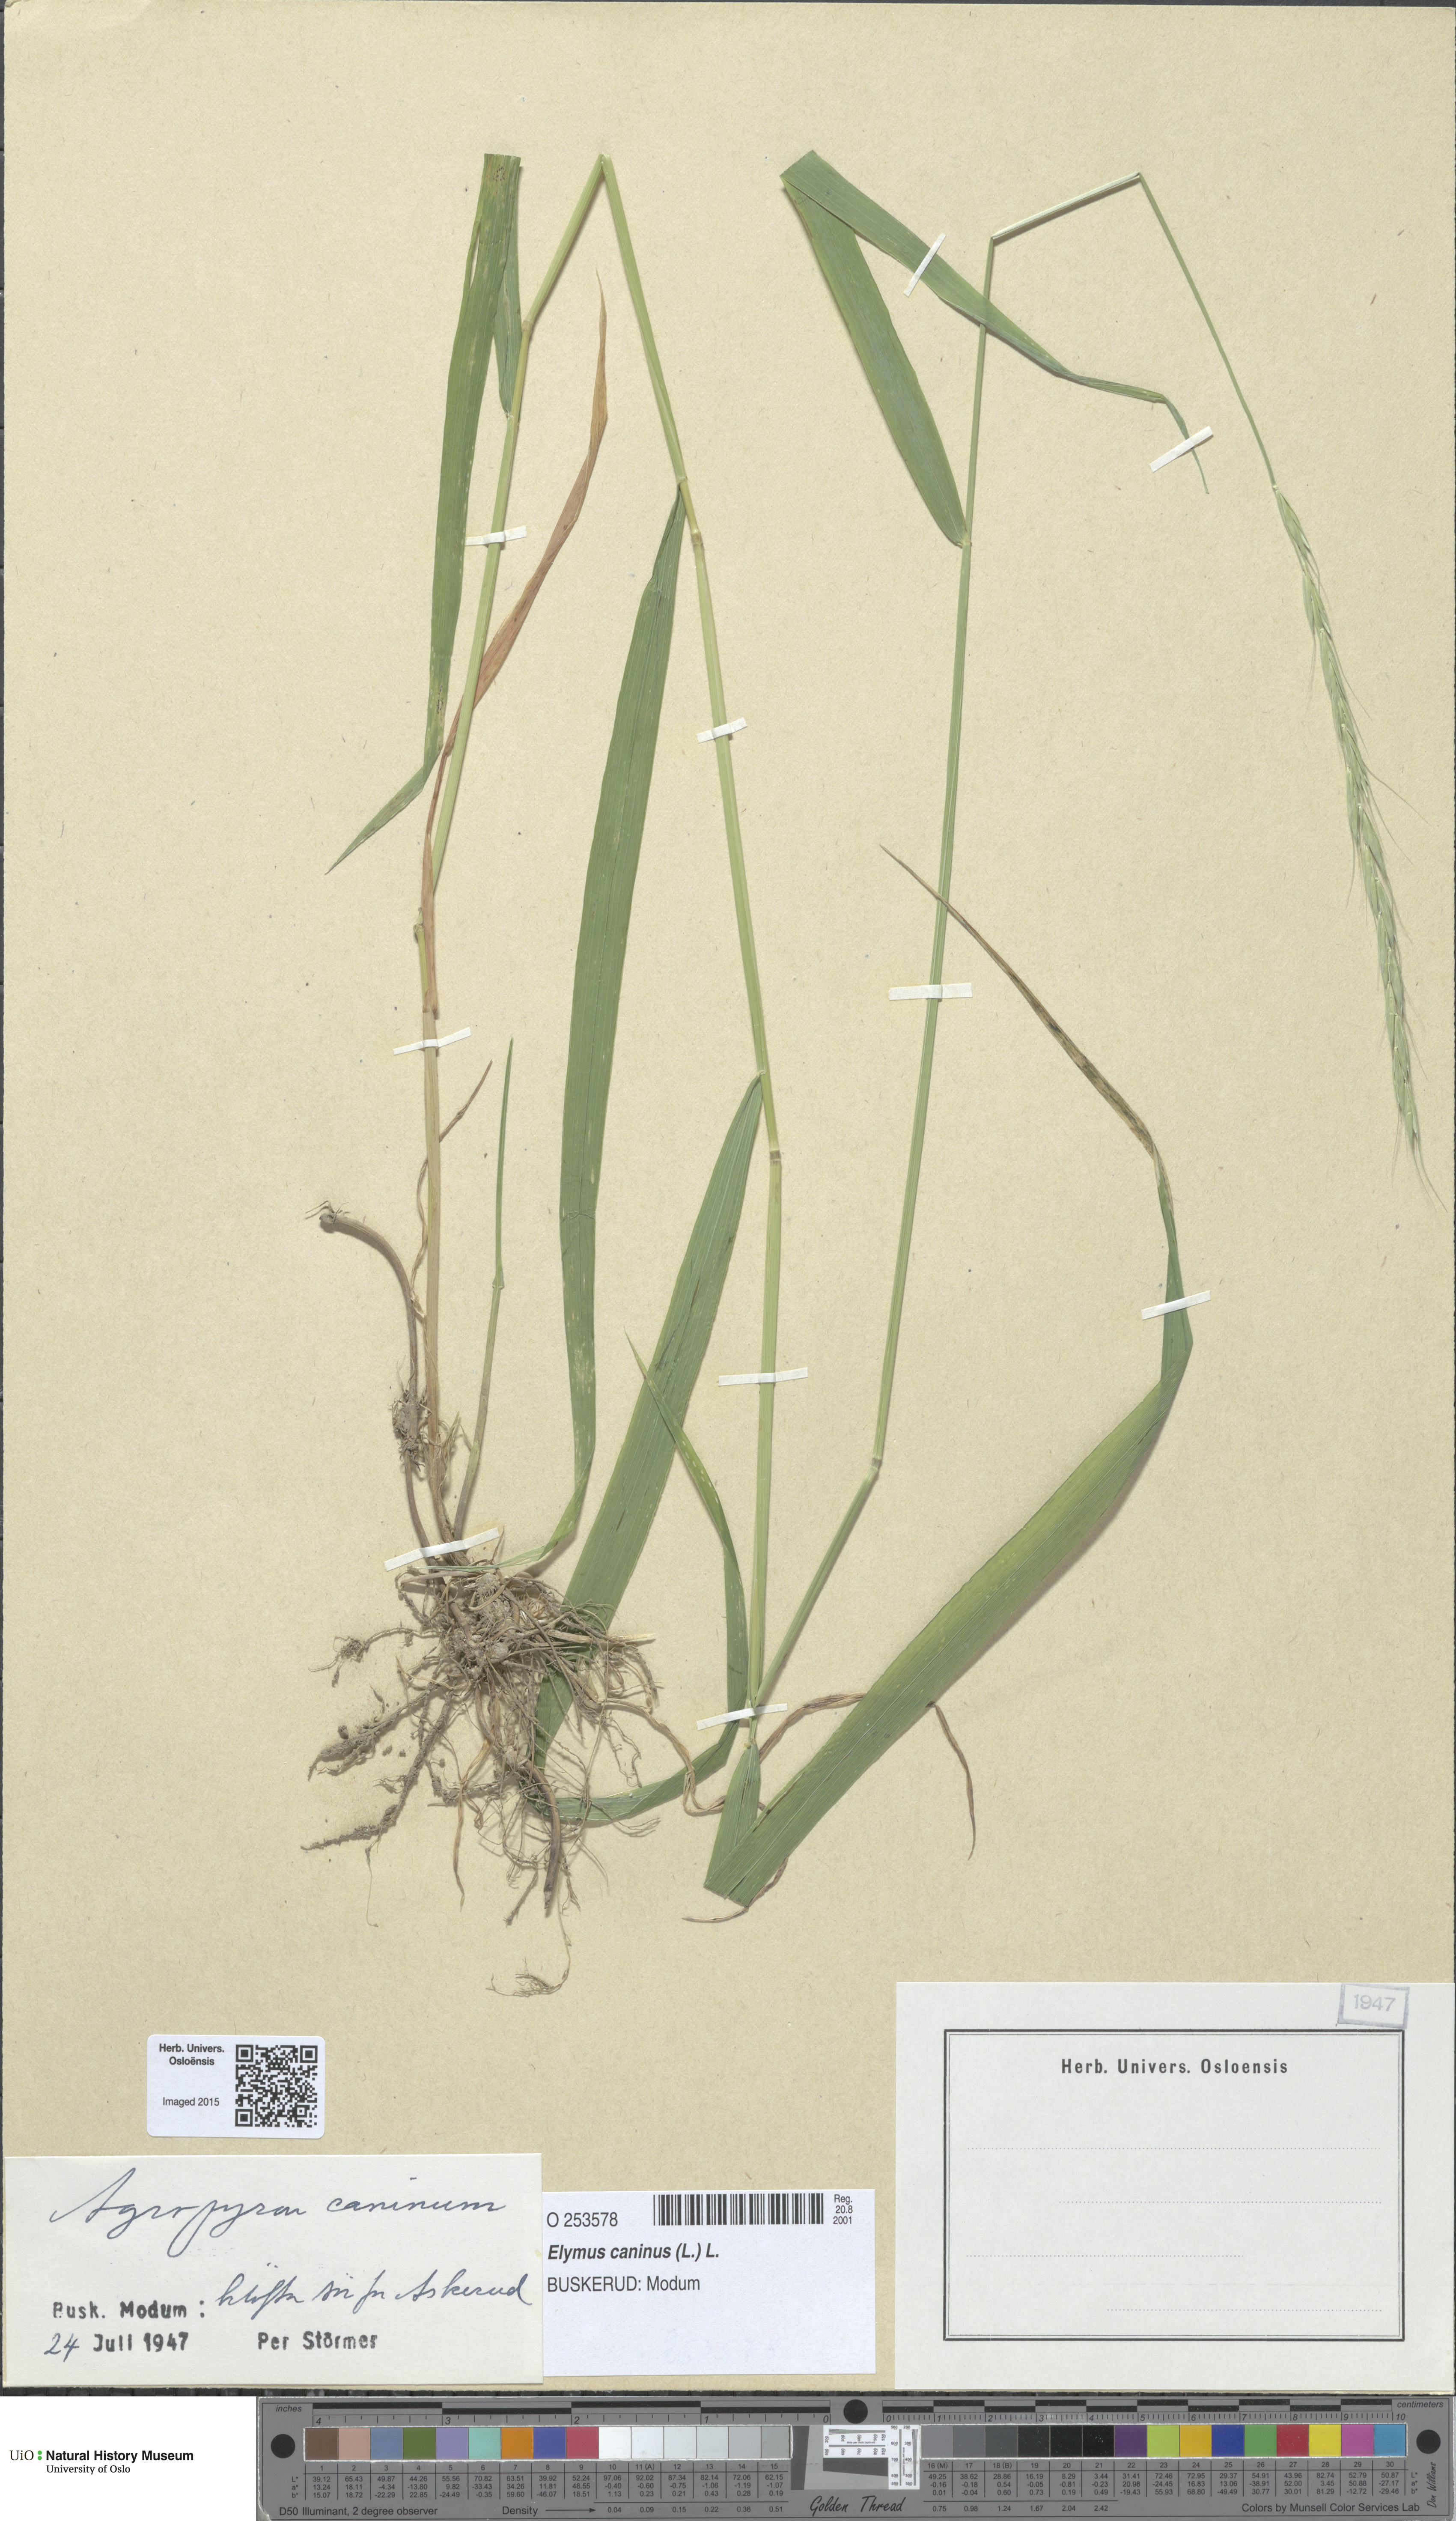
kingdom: Plantae
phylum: Tracheophyta
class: Liliopsida
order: Poales
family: Poaceae
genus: Elymus
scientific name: Elymus caninus
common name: Bearded couch
